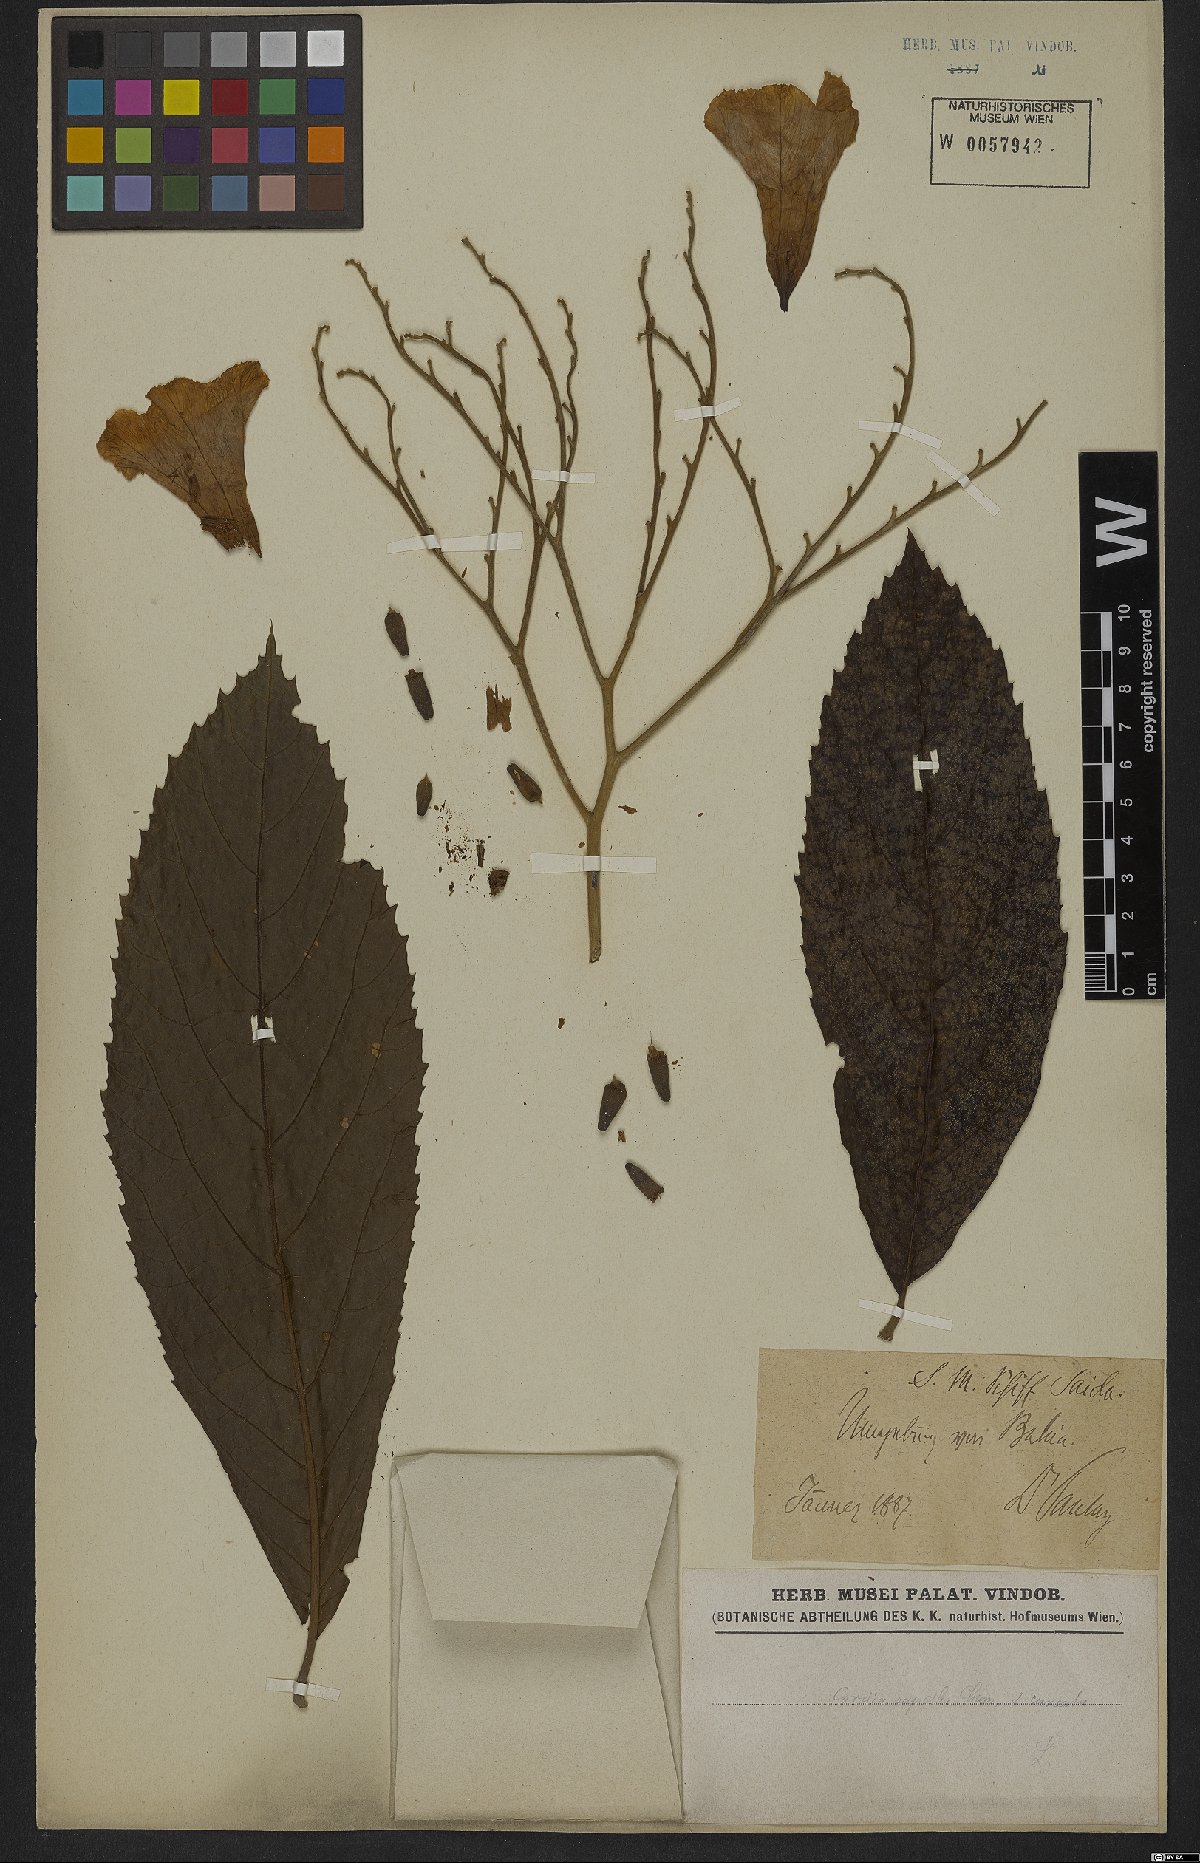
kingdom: Plantae
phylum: Tracheophyta
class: Magnoliopsida
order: Boraginales
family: Cordiaceae
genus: Cordia
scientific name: Cordia superba
